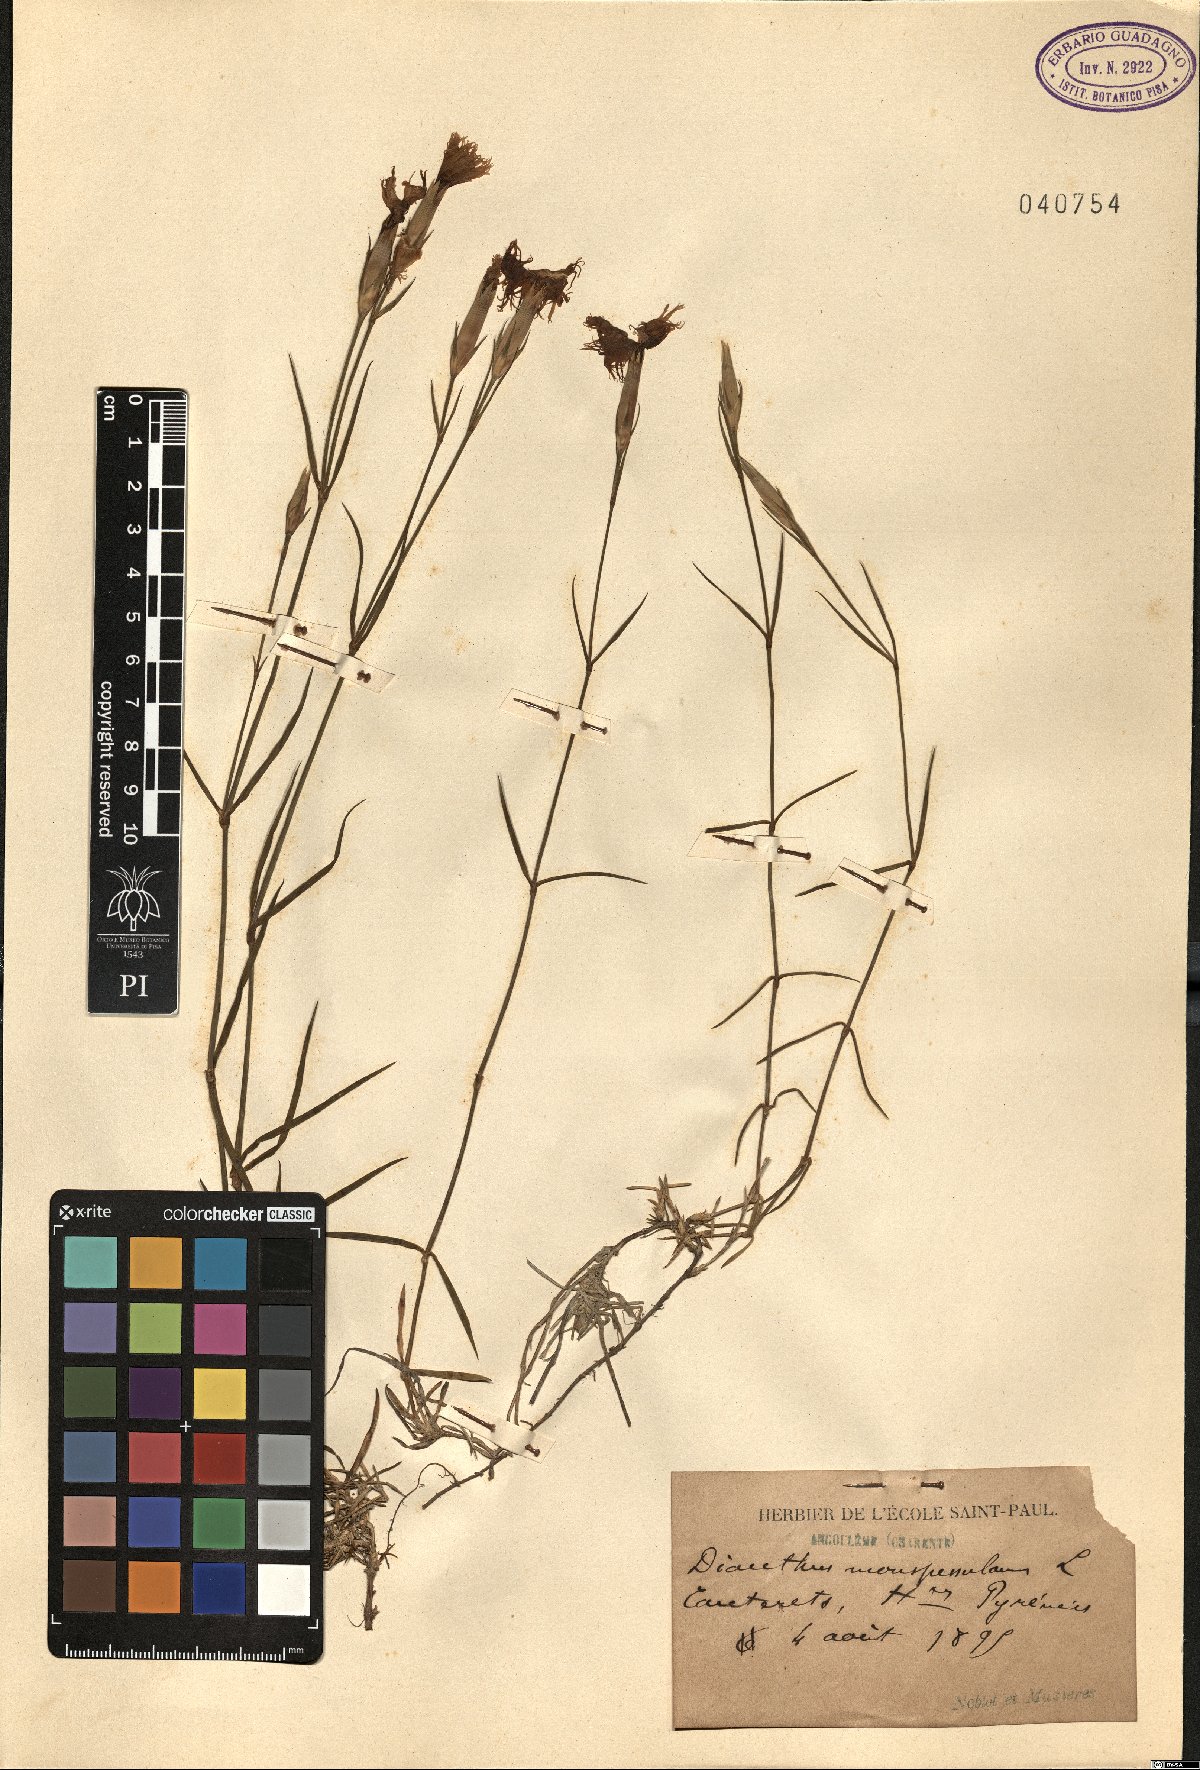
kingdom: Plantae
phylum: Tracheophyta
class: Magnoliopsida
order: Caryophyllales
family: Caryophyllaceae
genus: Dianthus
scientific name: Dianthus hyssopifolius
